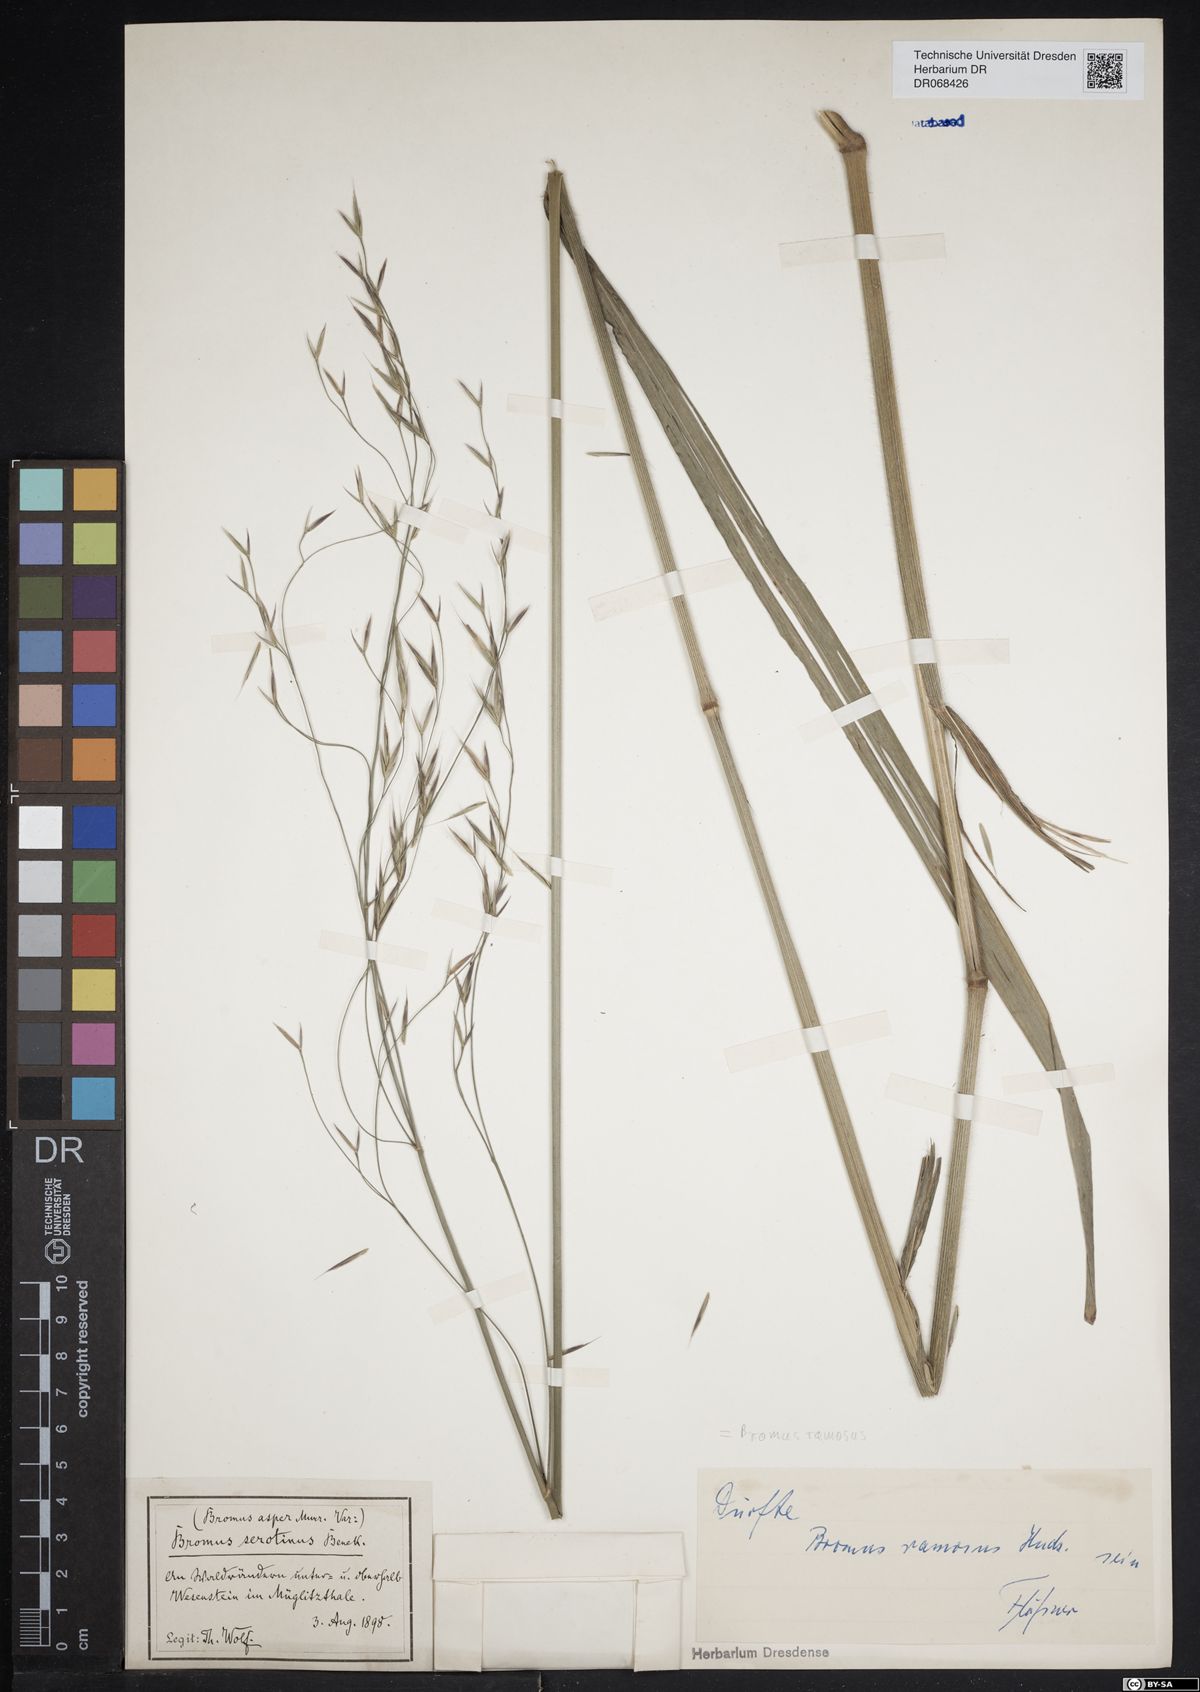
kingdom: Plantae
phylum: Tracheophyta
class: Liliopsida
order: Poales
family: Poaceae
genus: Bromus
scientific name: Bromus ramosus
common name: Hairy brome
